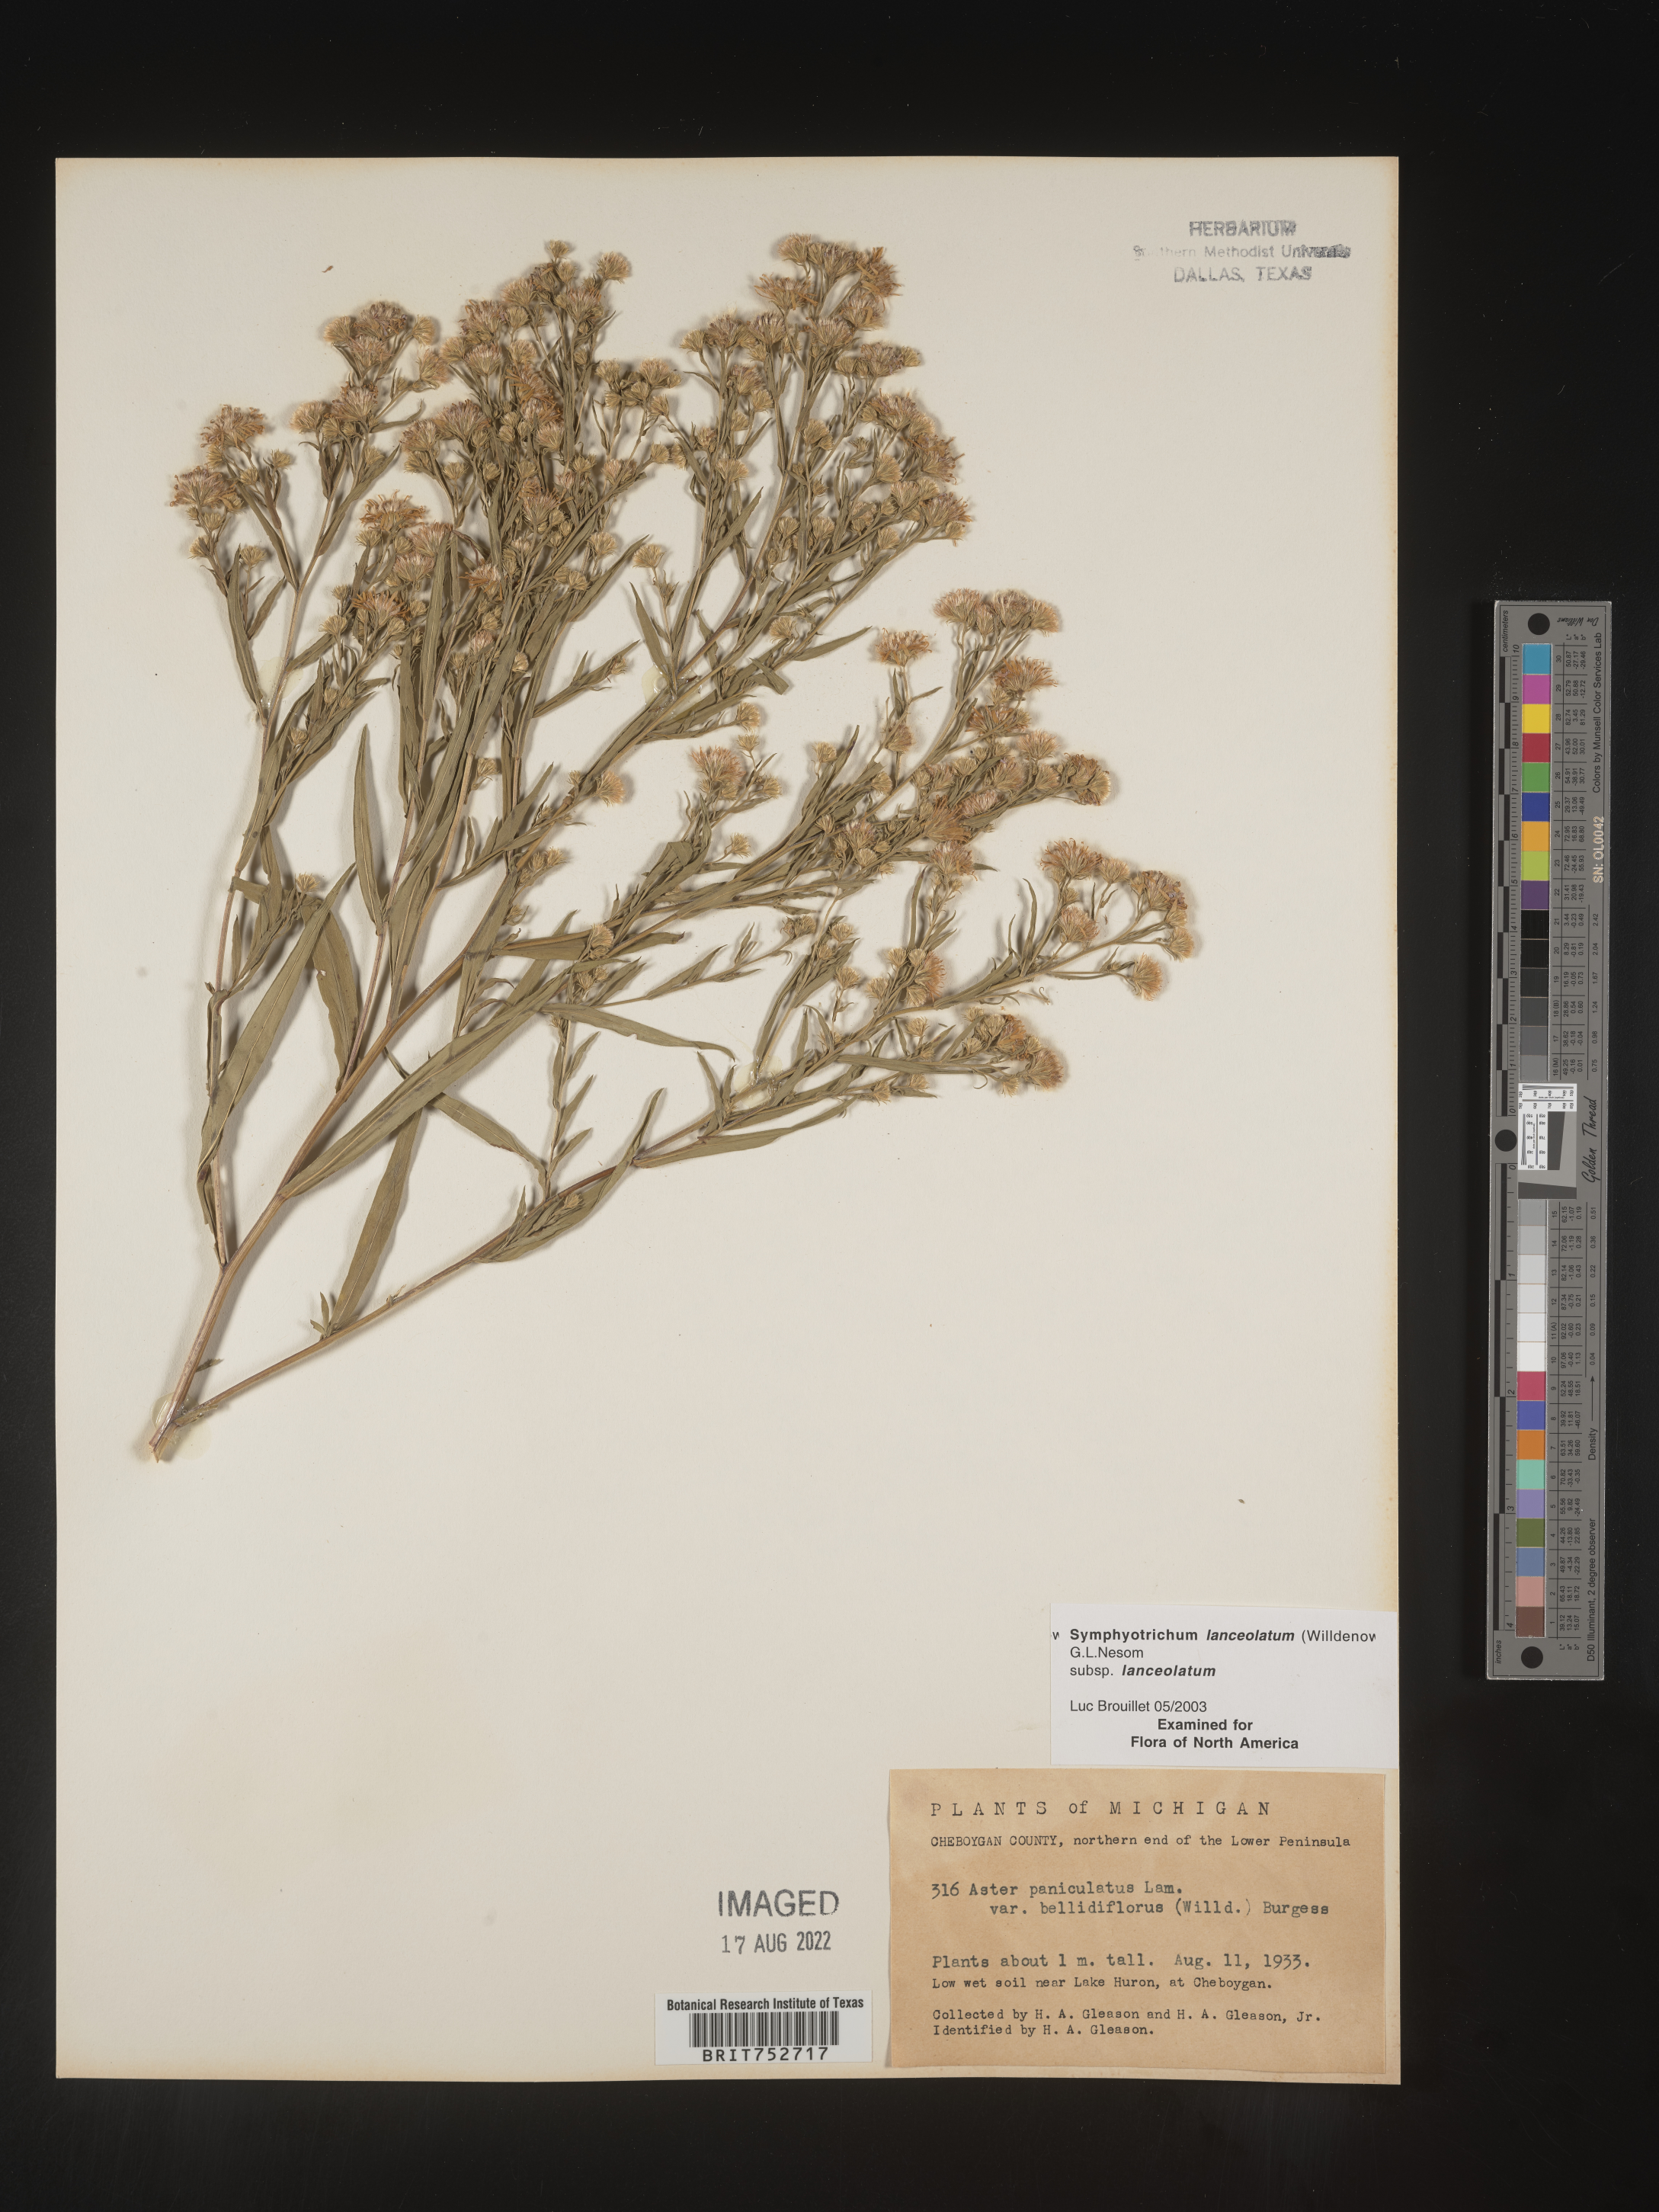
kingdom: Plantae
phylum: Tracheophyta
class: Magnoliopsida
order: Asterales
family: Asteraceae
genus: Symphyotrichum
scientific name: Symphyotrichum lanceolatum
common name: Panicled aster
